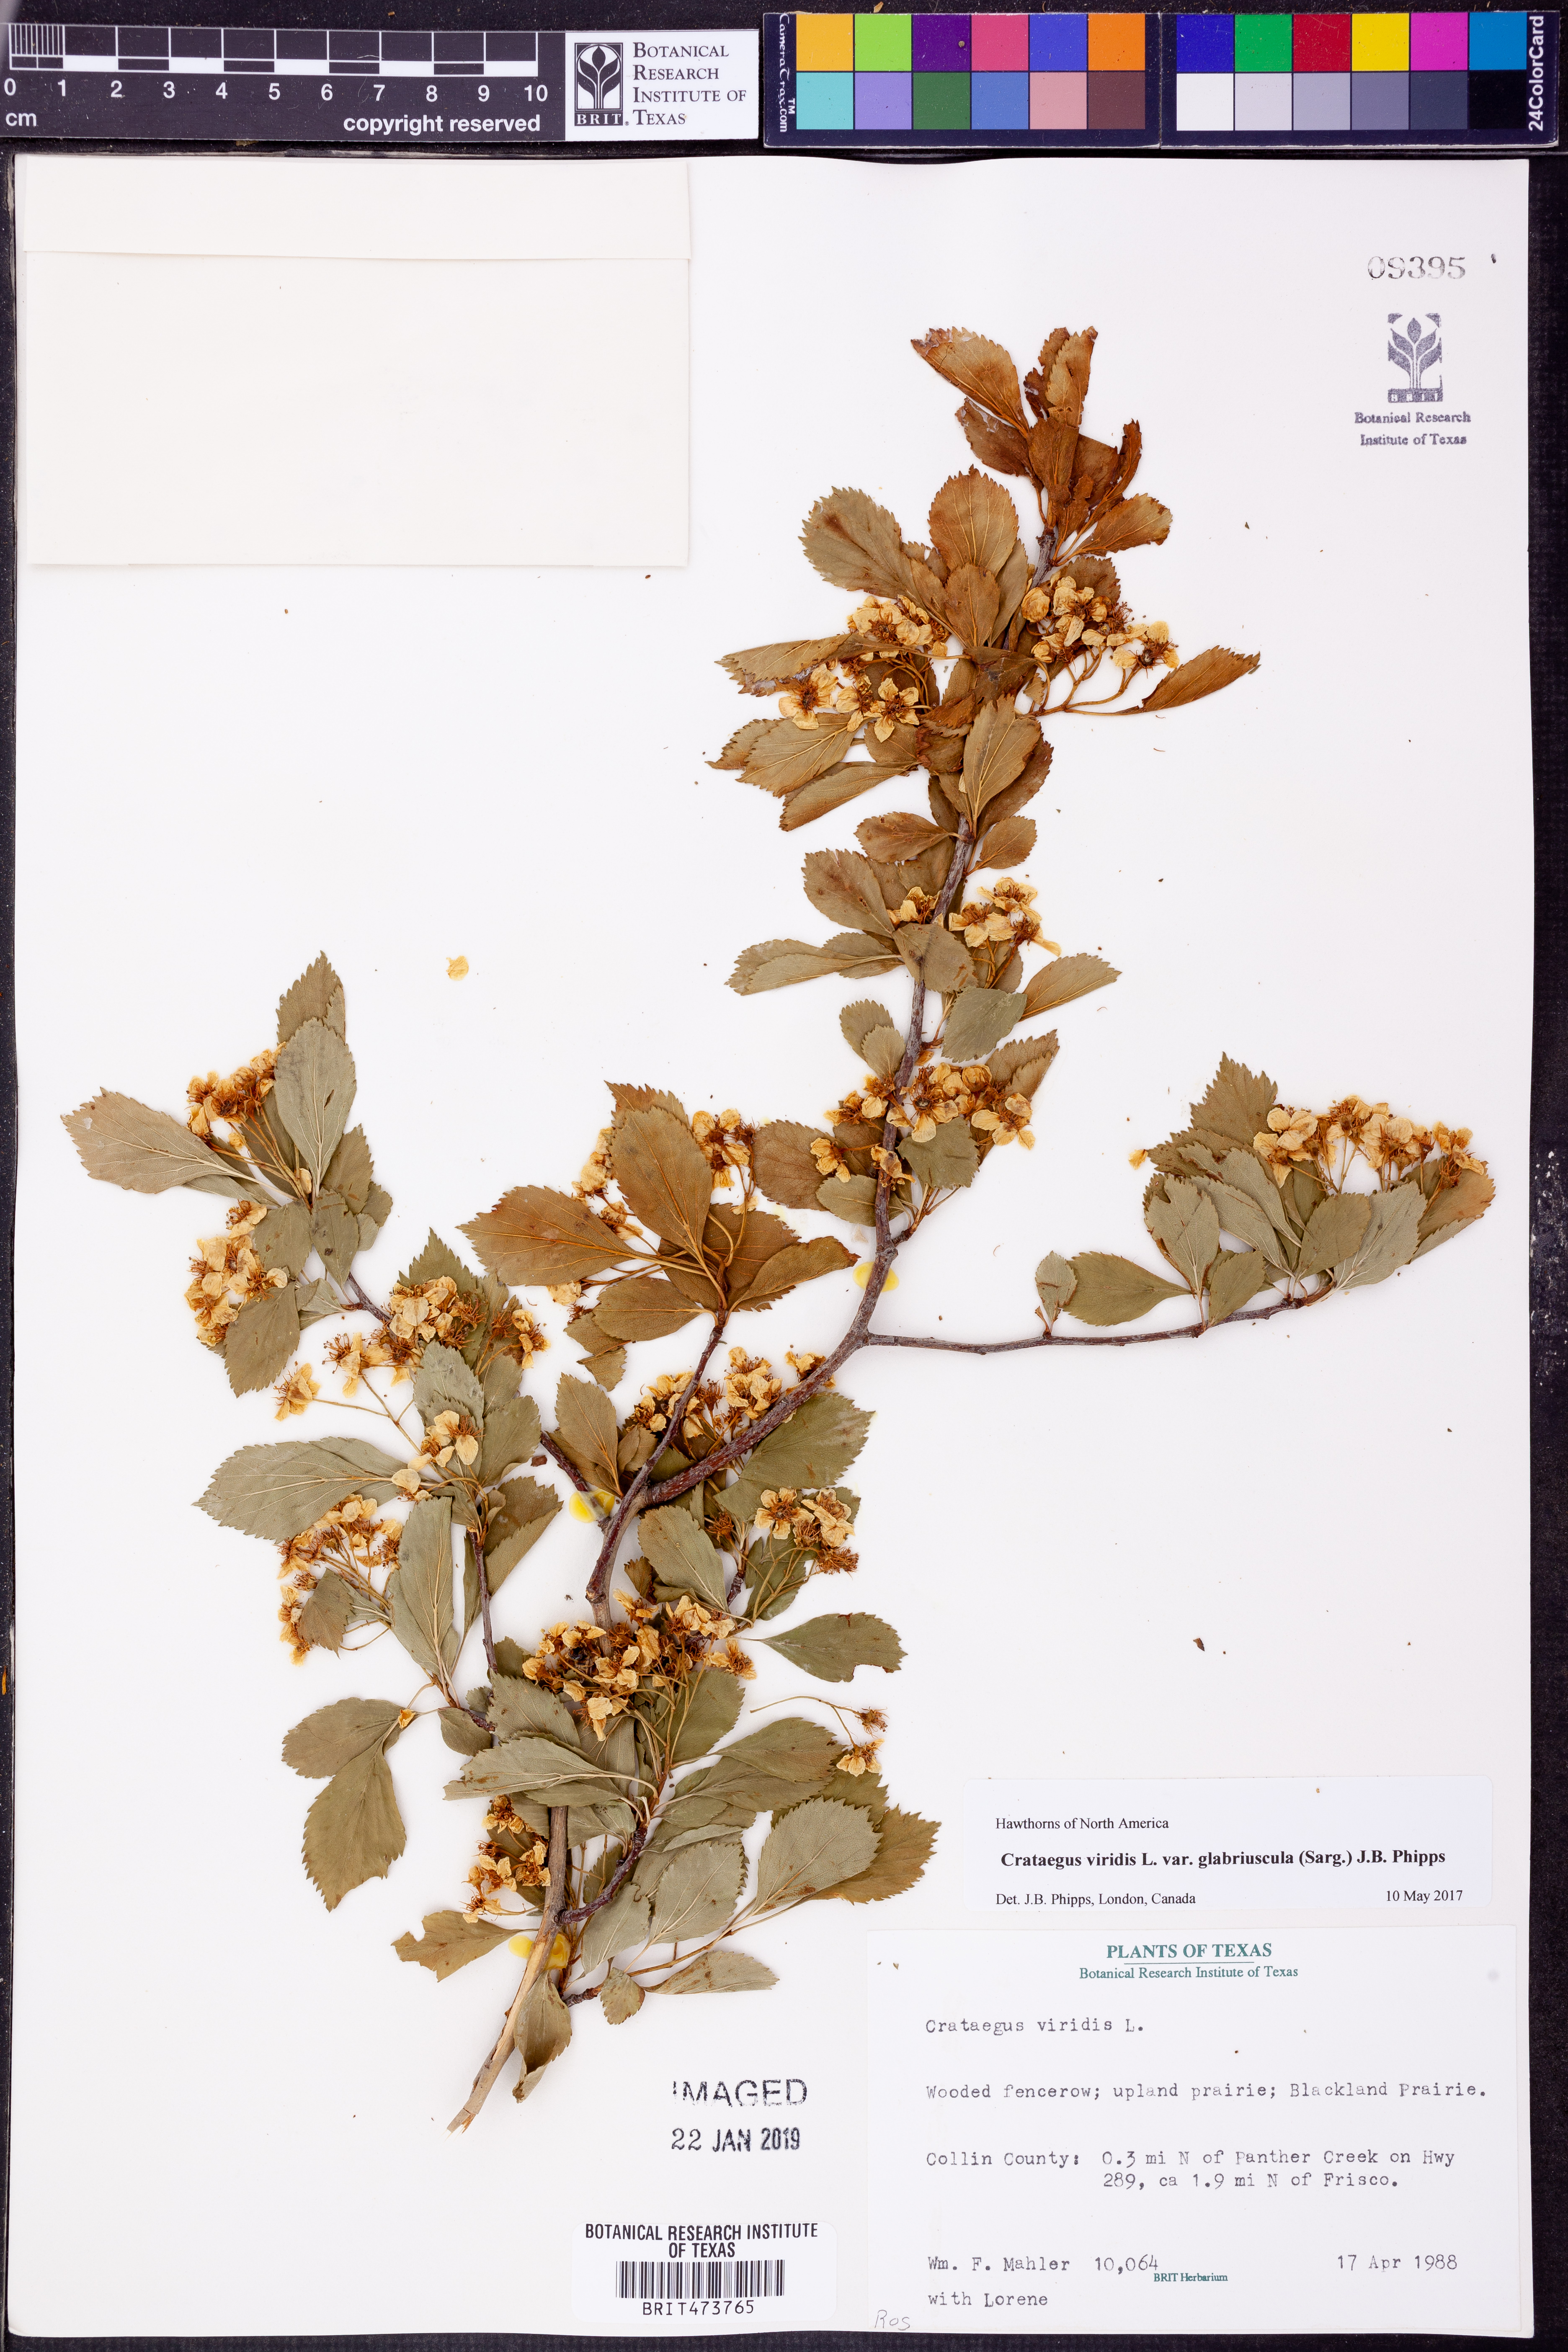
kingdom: Plantae
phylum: Tracheophyta
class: Magnoliopsida
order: Rosales
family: Rosaceae
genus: Crataegus
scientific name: Crataegus viridis
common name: Southernthorn
